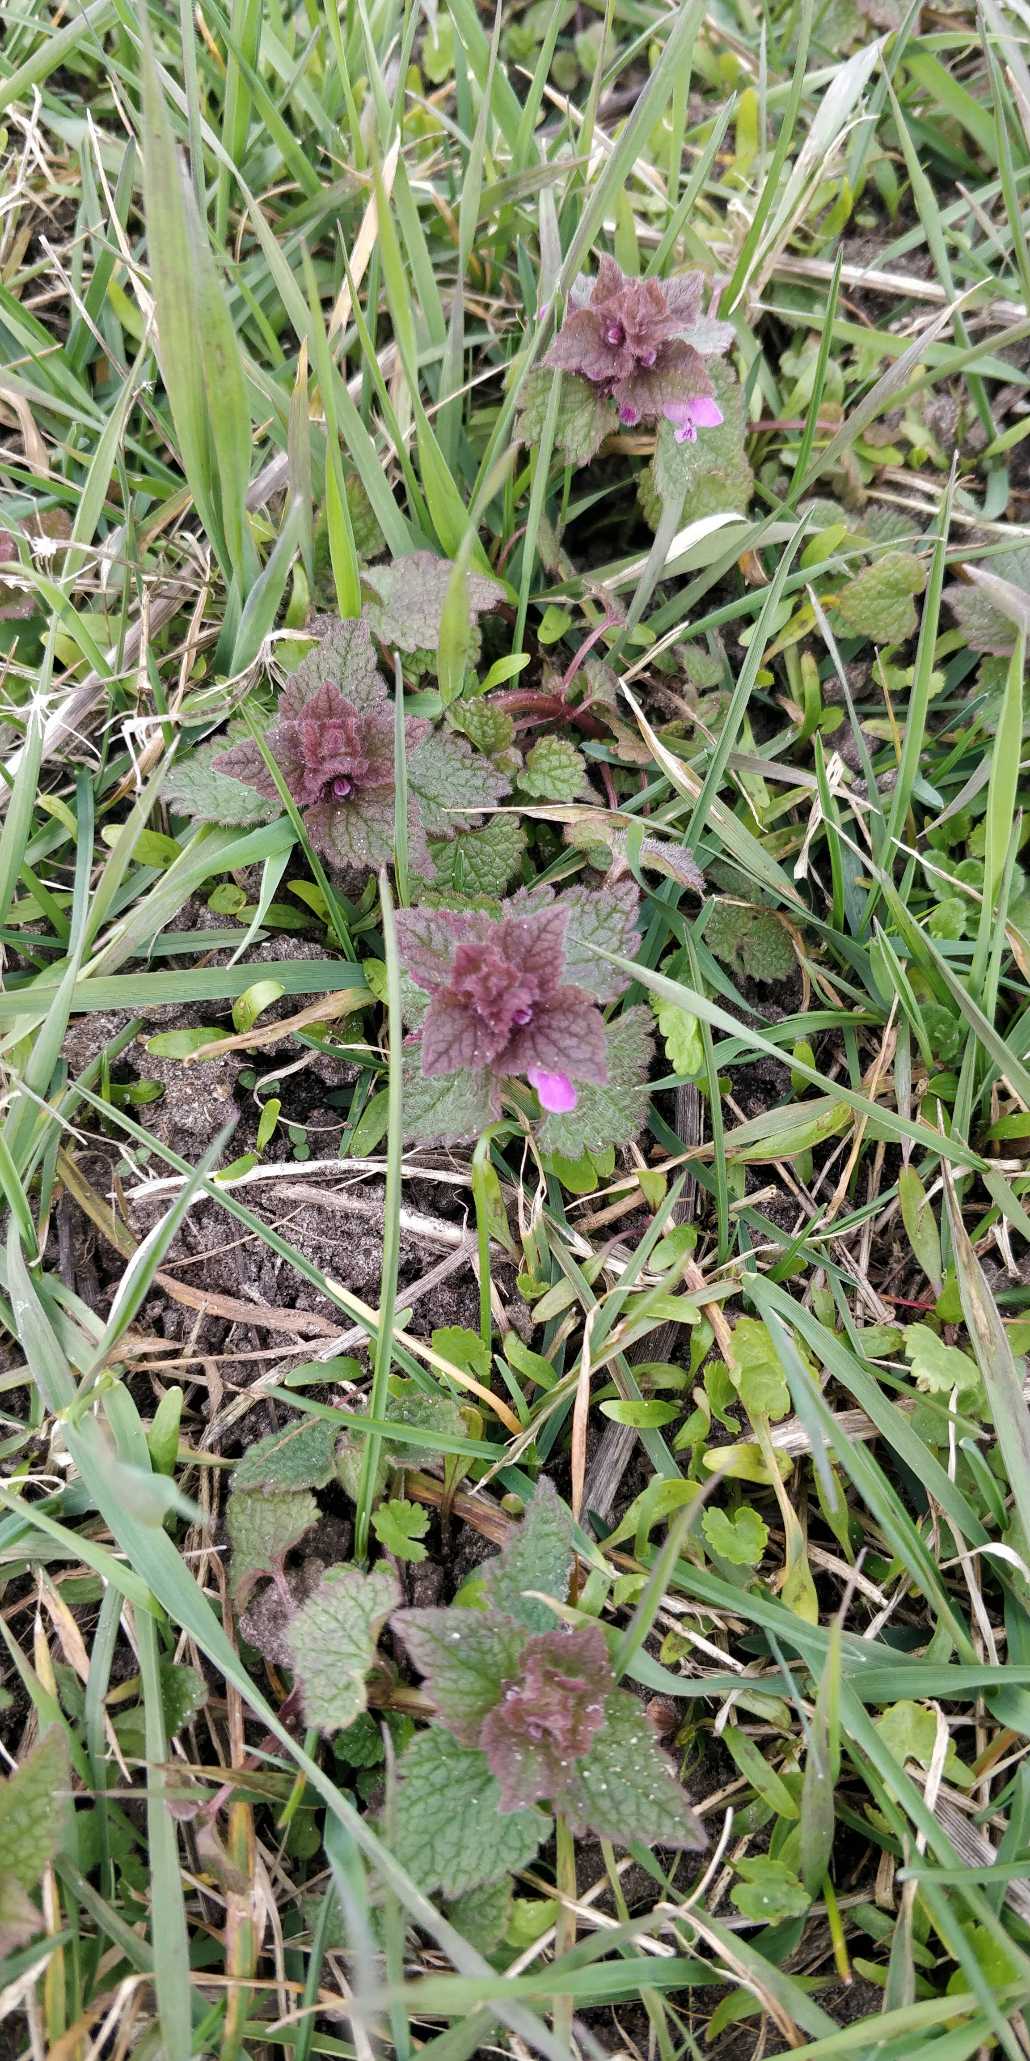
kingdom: Plantae
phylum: Tracheophyta
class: Magnoliopsida
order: Lamiales
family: Lamiaceae
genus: Lamium
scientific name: Lamium purpureum
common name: Rød tvetand
